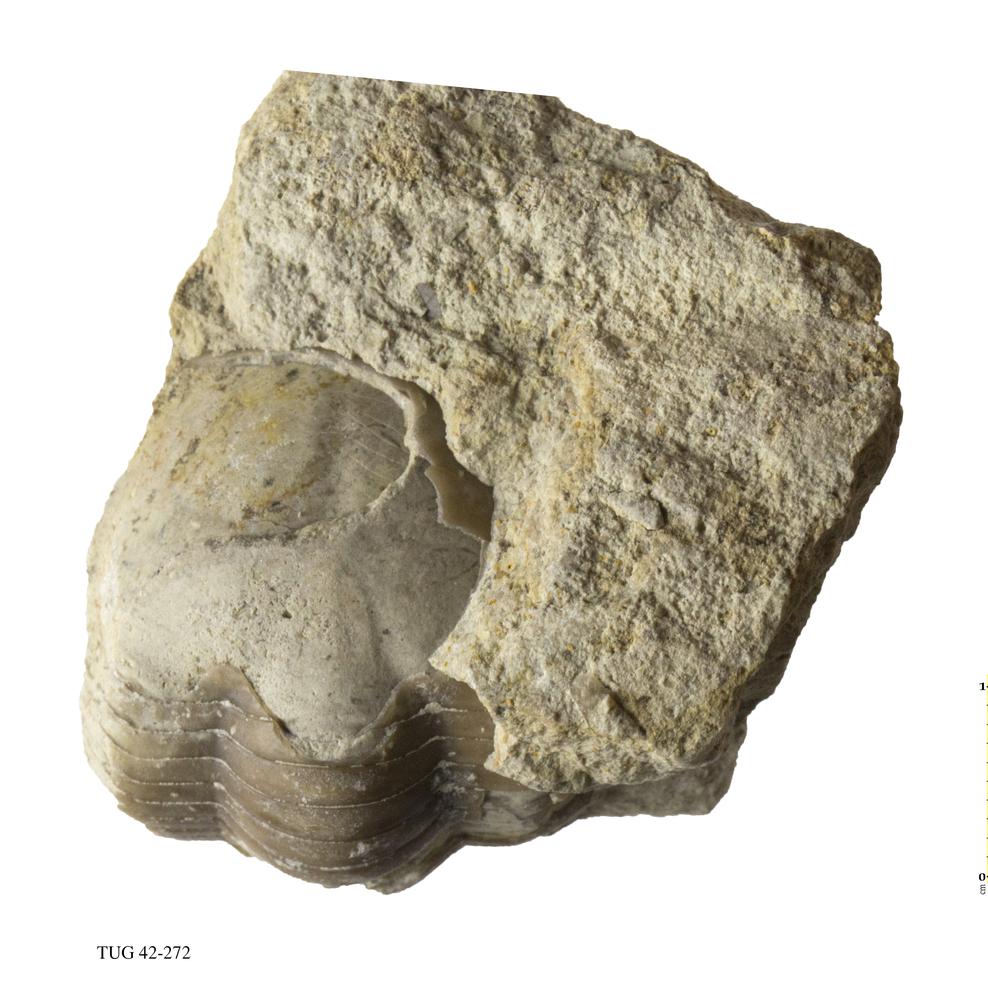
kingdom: Animalia
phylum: Arthropoda
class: Trilobita
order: Corynexochida
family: Illaenidae
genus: Illaenus
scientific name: Illaenus
